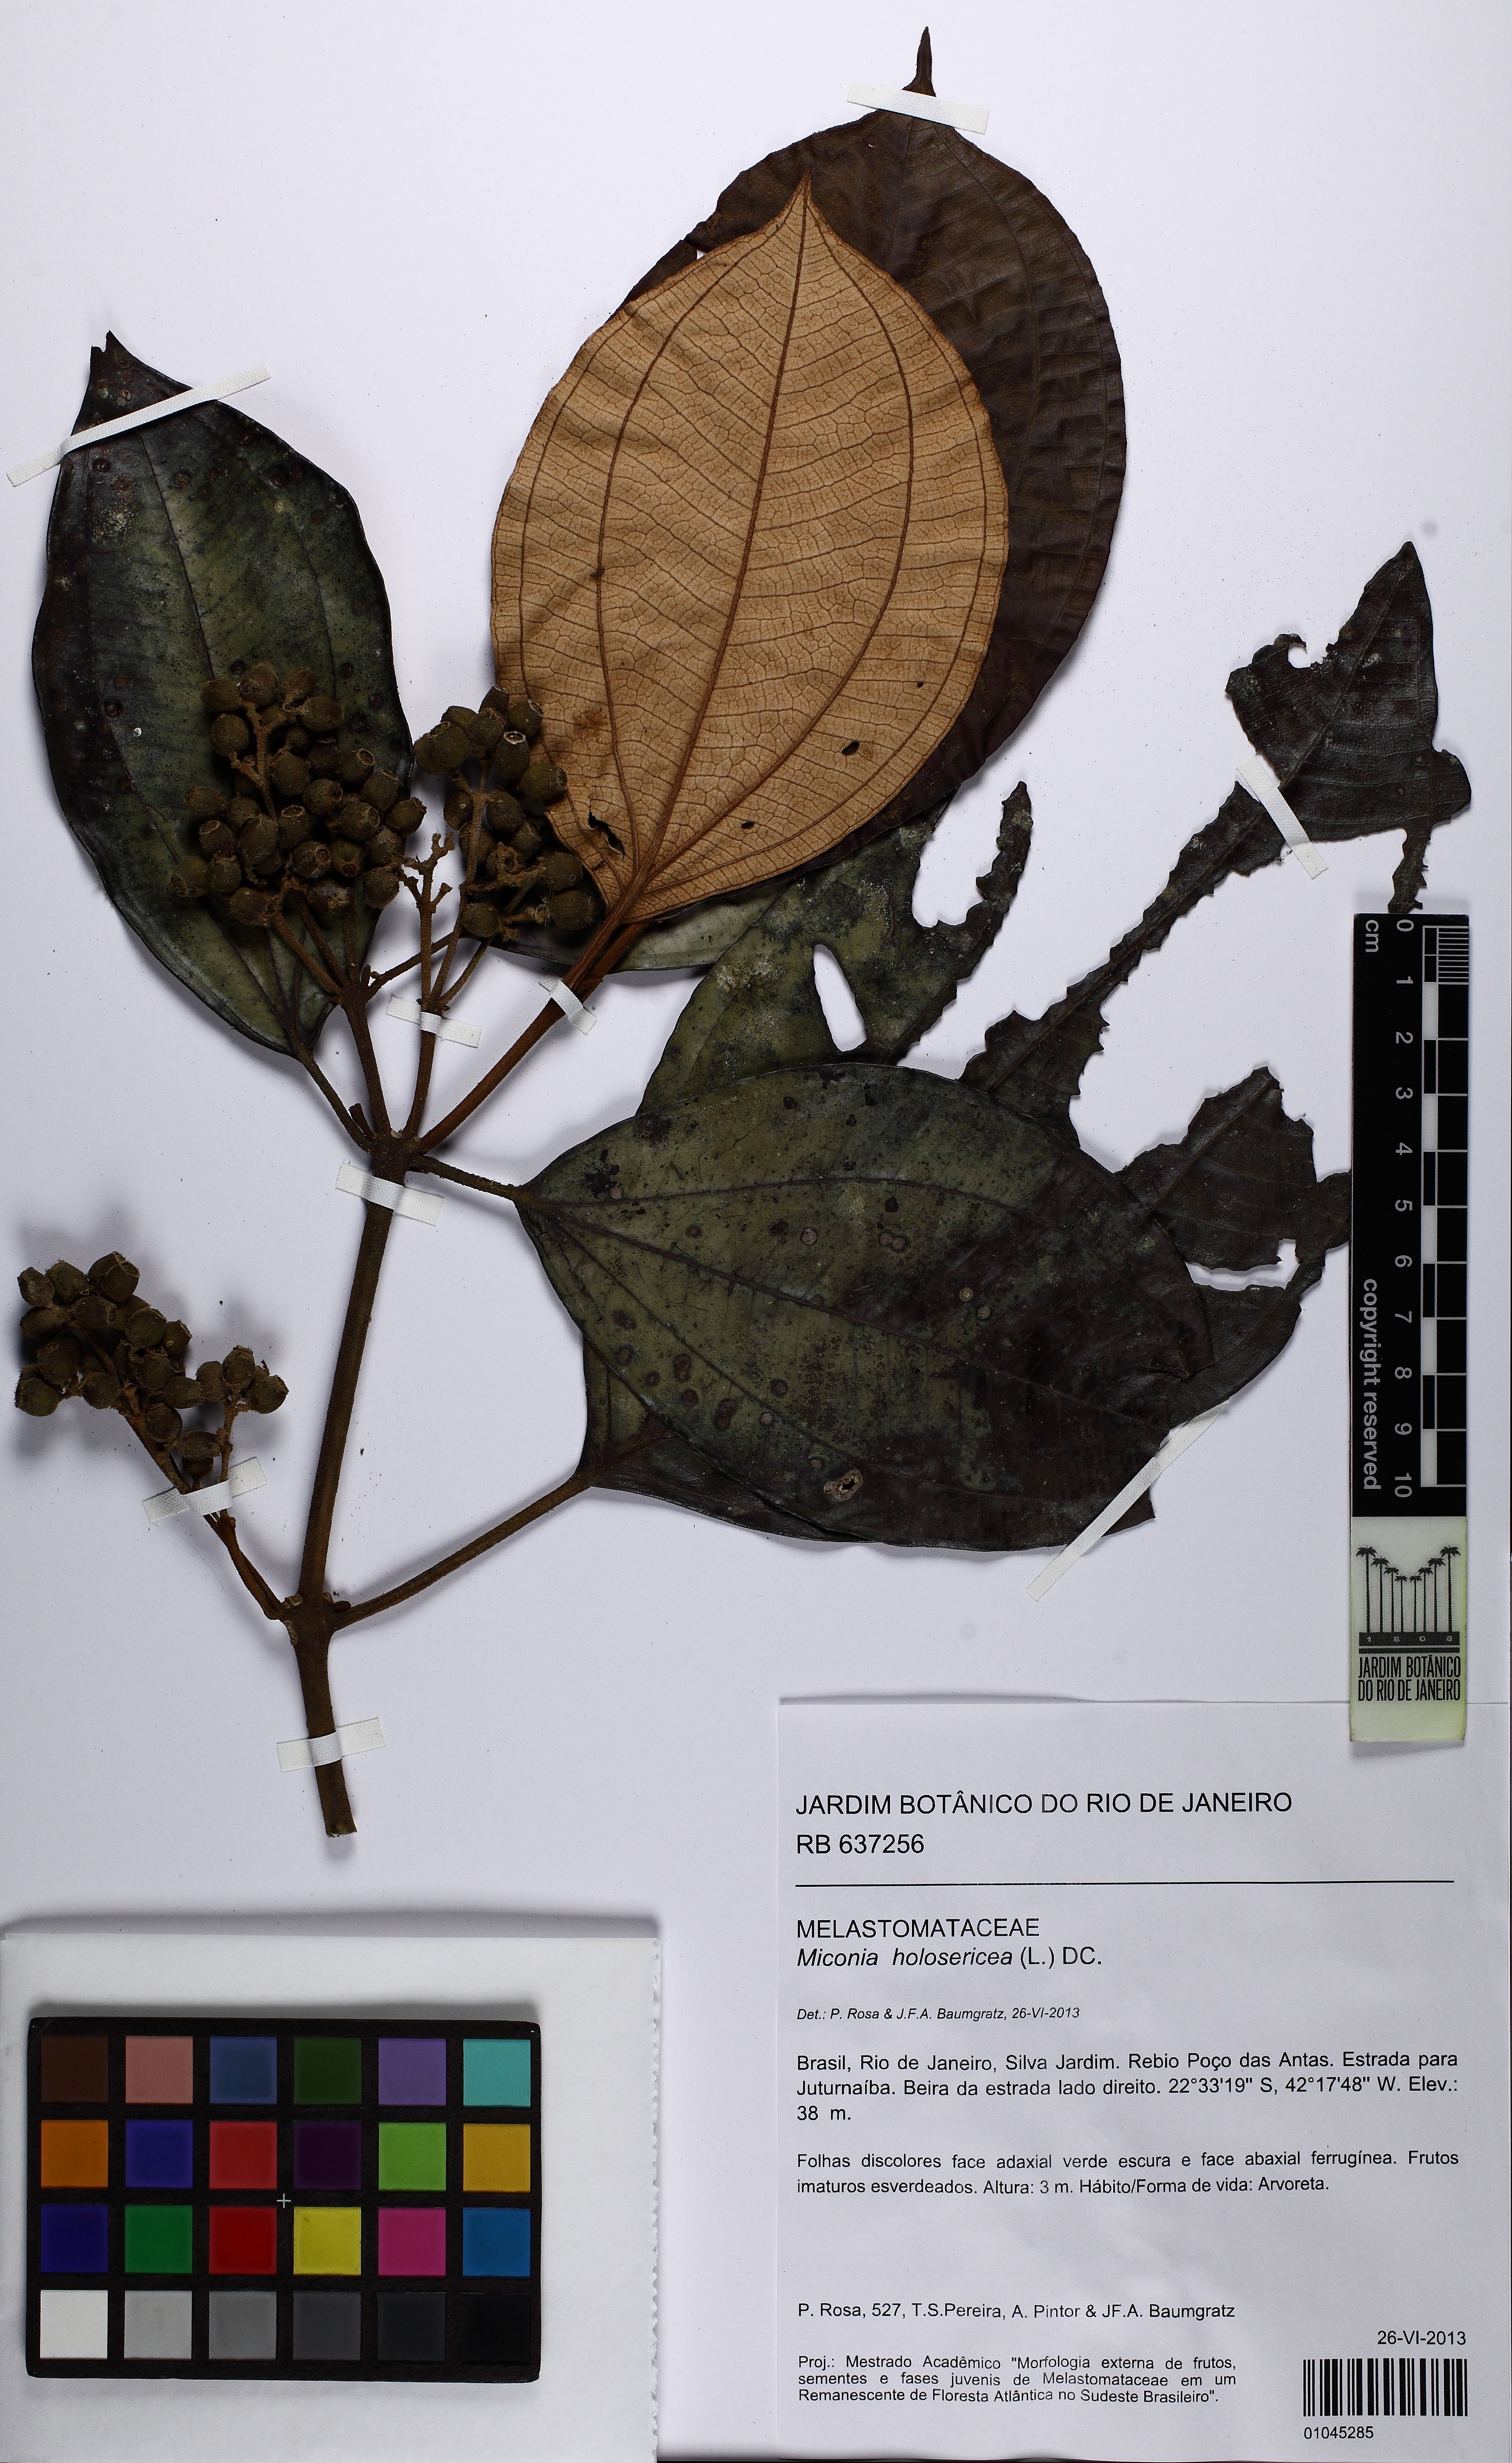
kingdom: Plantae
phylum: Tracheophyta
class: Magnoliopsida
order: Myrtales
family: Melastomataceae
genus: Miconia
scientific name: Miconia holosericea
